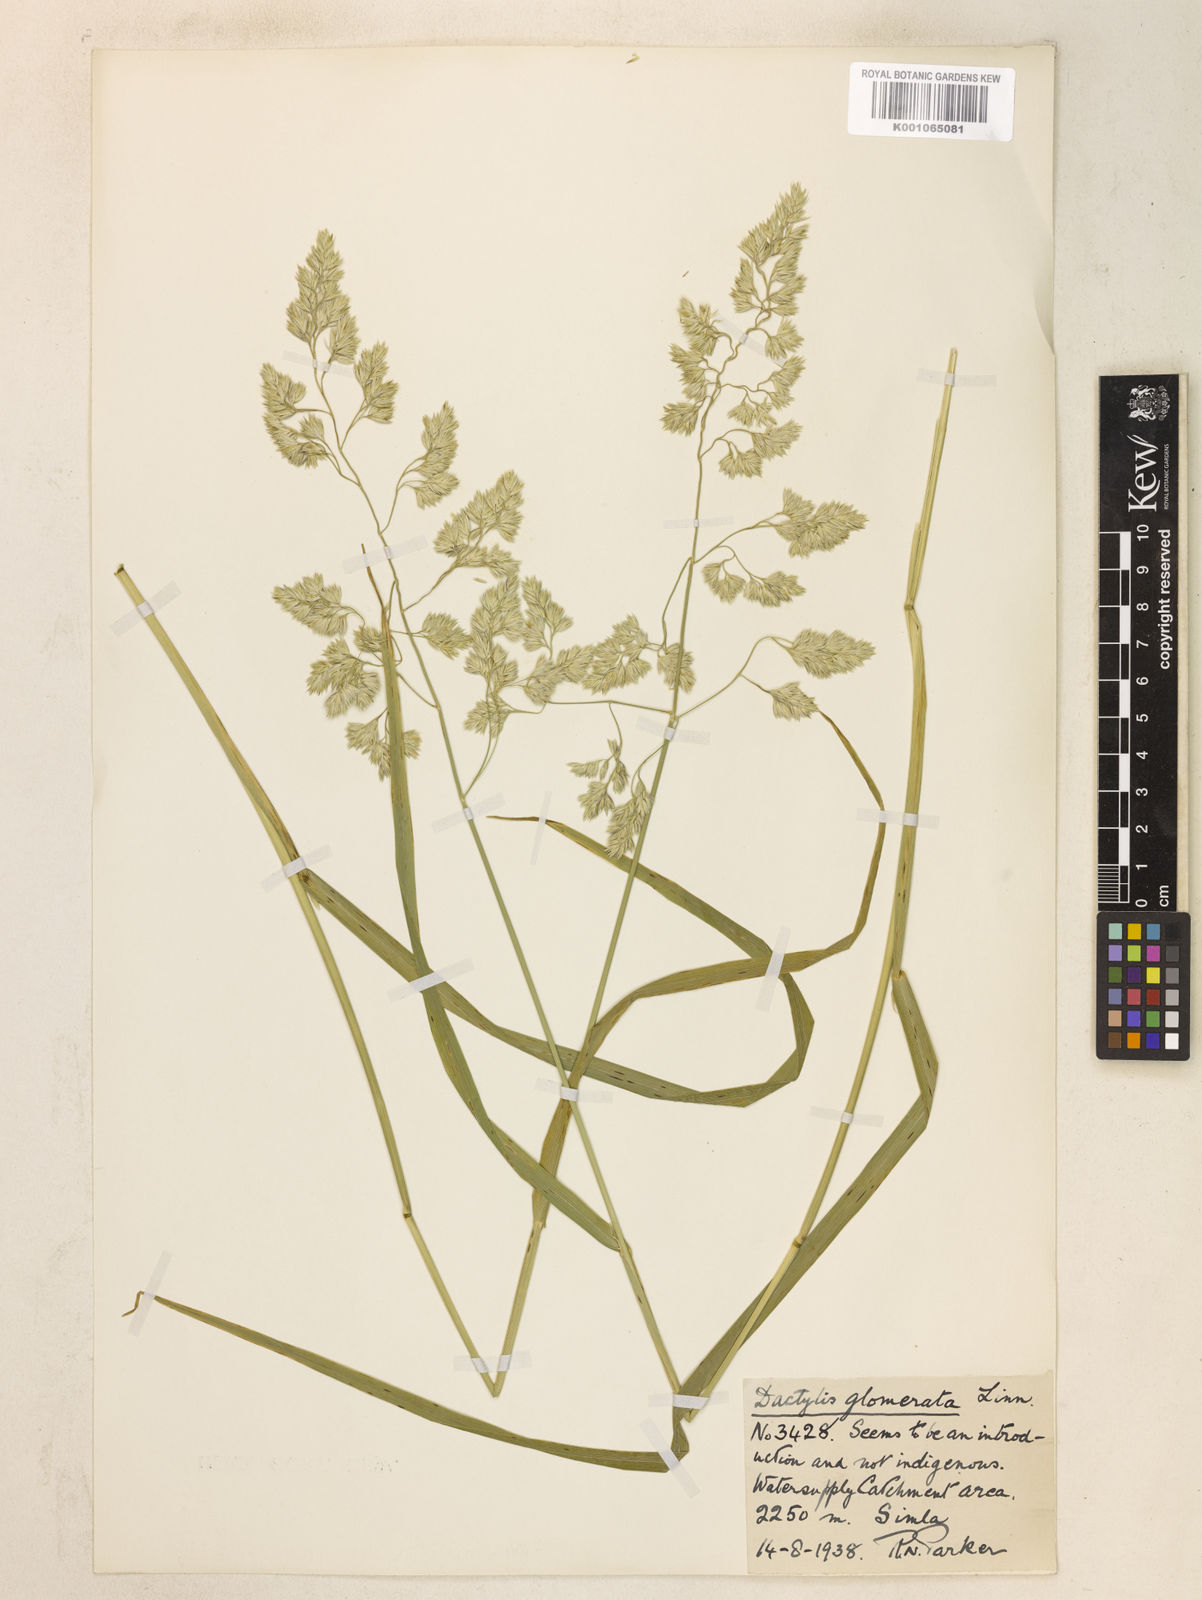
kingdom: Plantae
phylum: Tracheophyta
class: Liliopsida
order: Poales
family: Poaceae
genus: Dactylis
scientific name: Dactylis glomerata
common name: Orchardgrass
